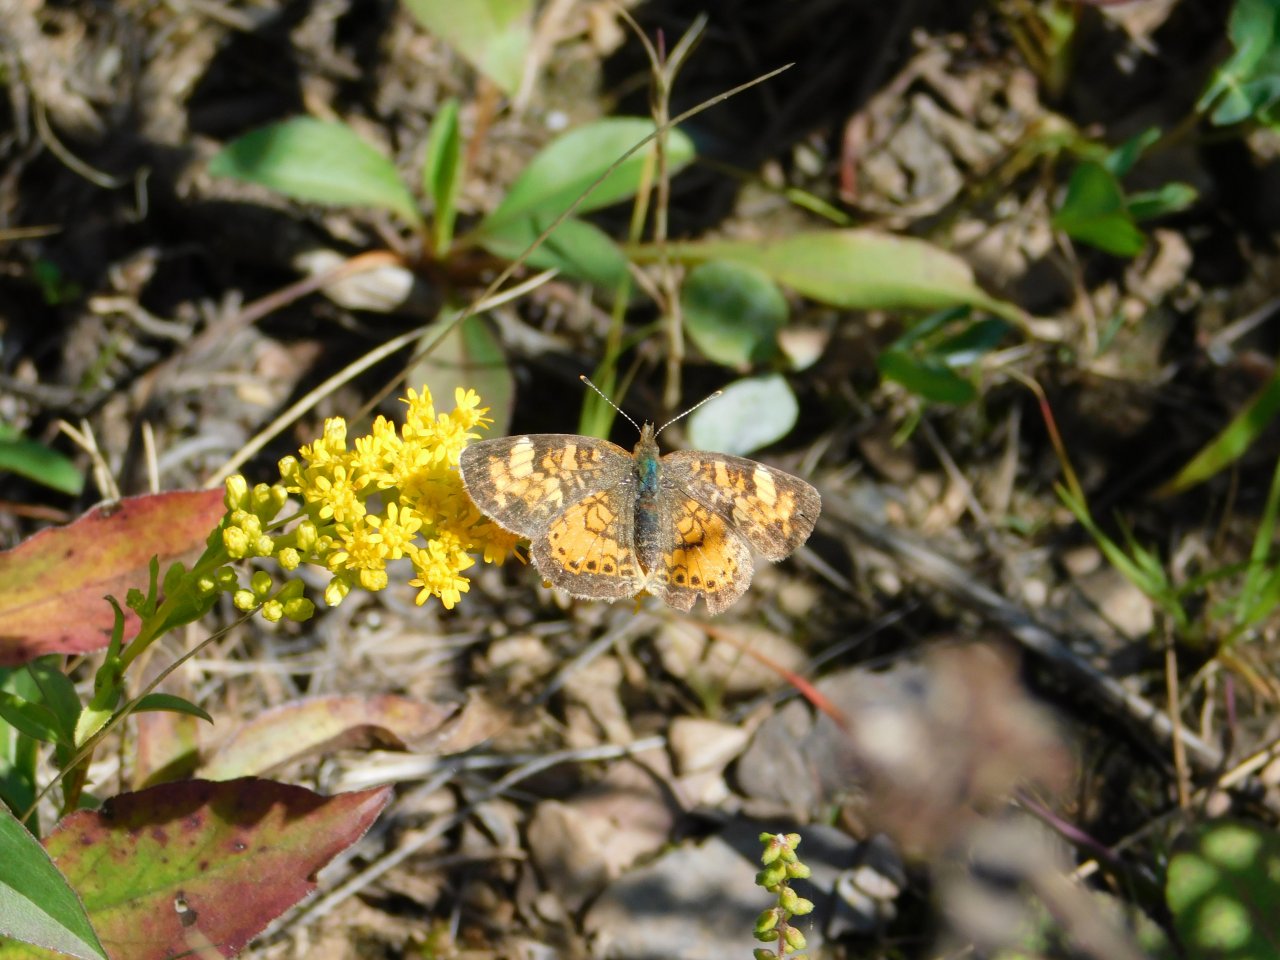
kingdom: Animalia
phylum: Arthropoda
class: Insecta
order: Lepidoptera
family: Nymphalidae
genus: Phyciodes
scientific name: Phyciodes tharos
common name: Northern Crescent
